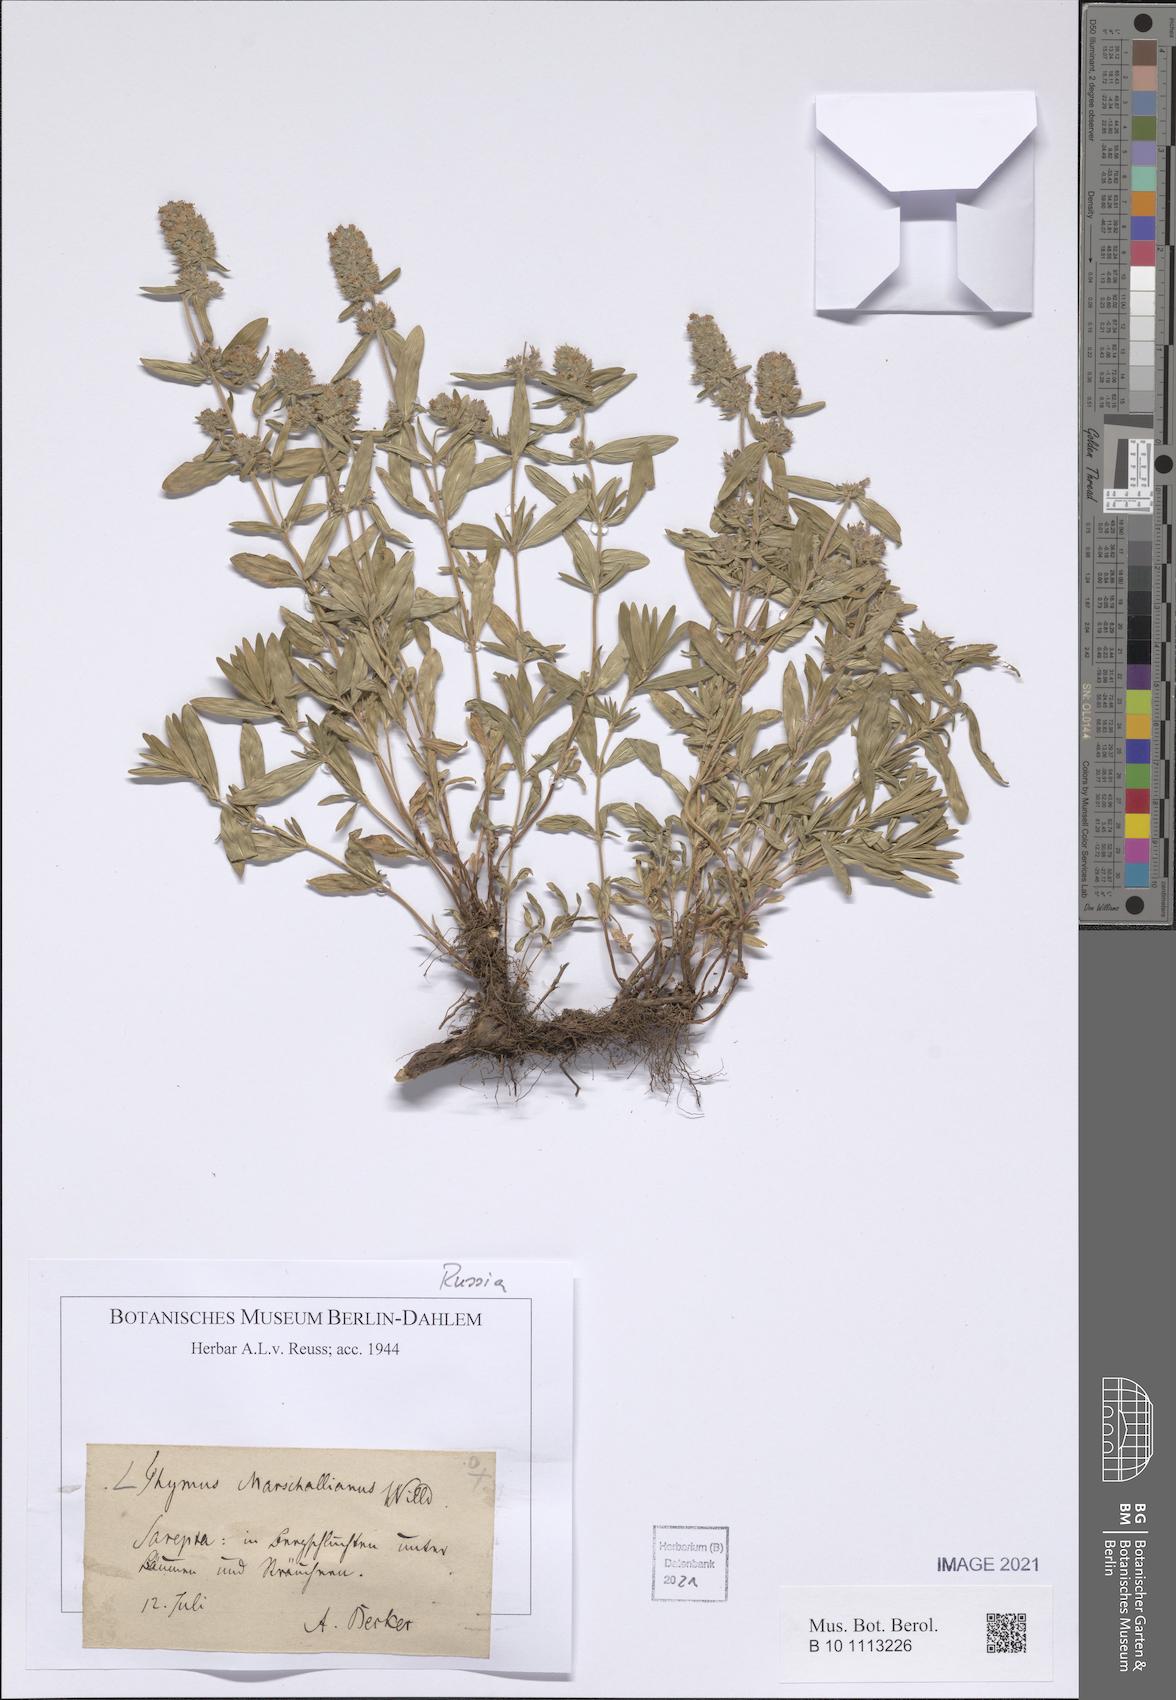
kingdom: Plantae
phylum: Tracheophyta
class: Magnoliopsida
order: Lamiales
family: Lamiaceae
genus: Thymus
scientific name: Thymus pannonicus
